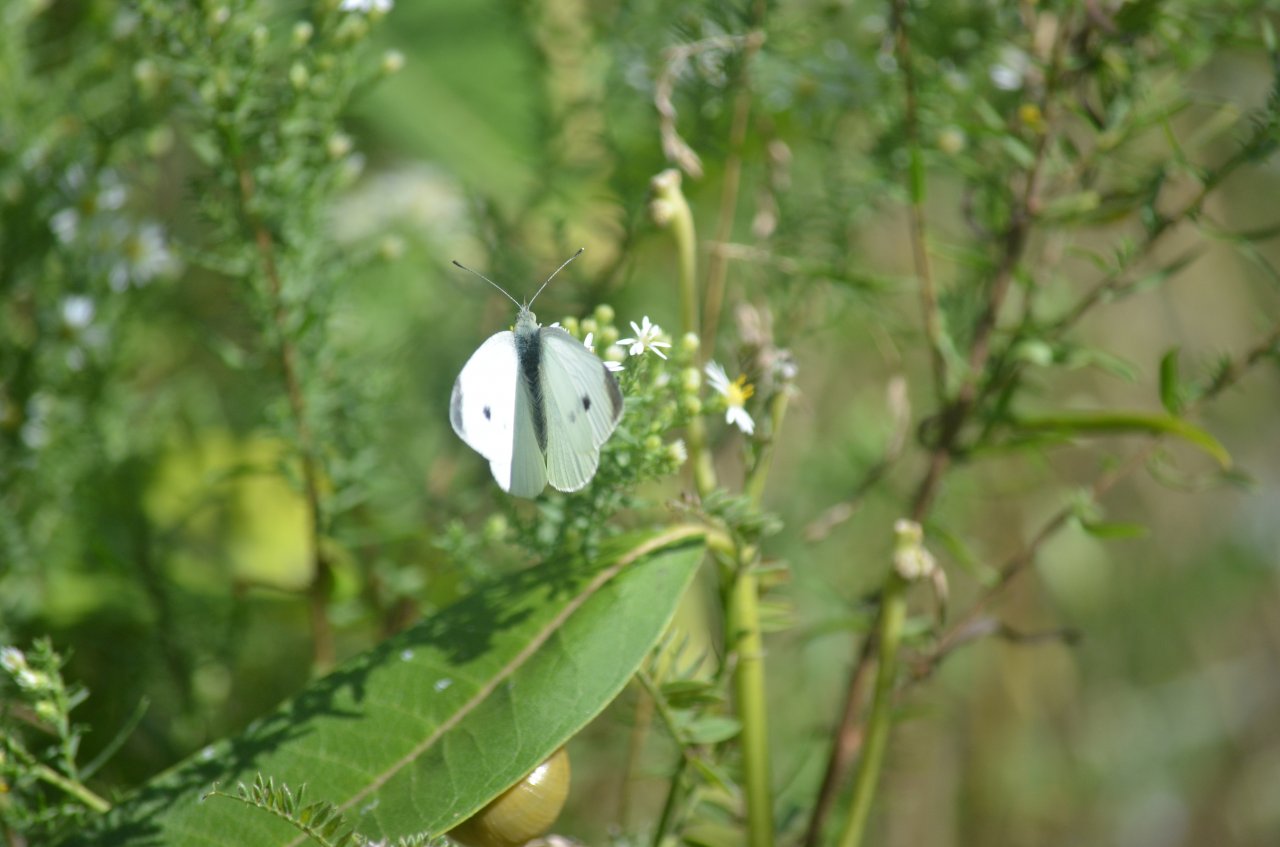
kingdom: Animalia
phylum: Arthropoda
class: Insecta
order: Lepidoptera
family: Pieridae
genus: Pieris
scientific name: Pieris rapae
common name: Cabbage White
